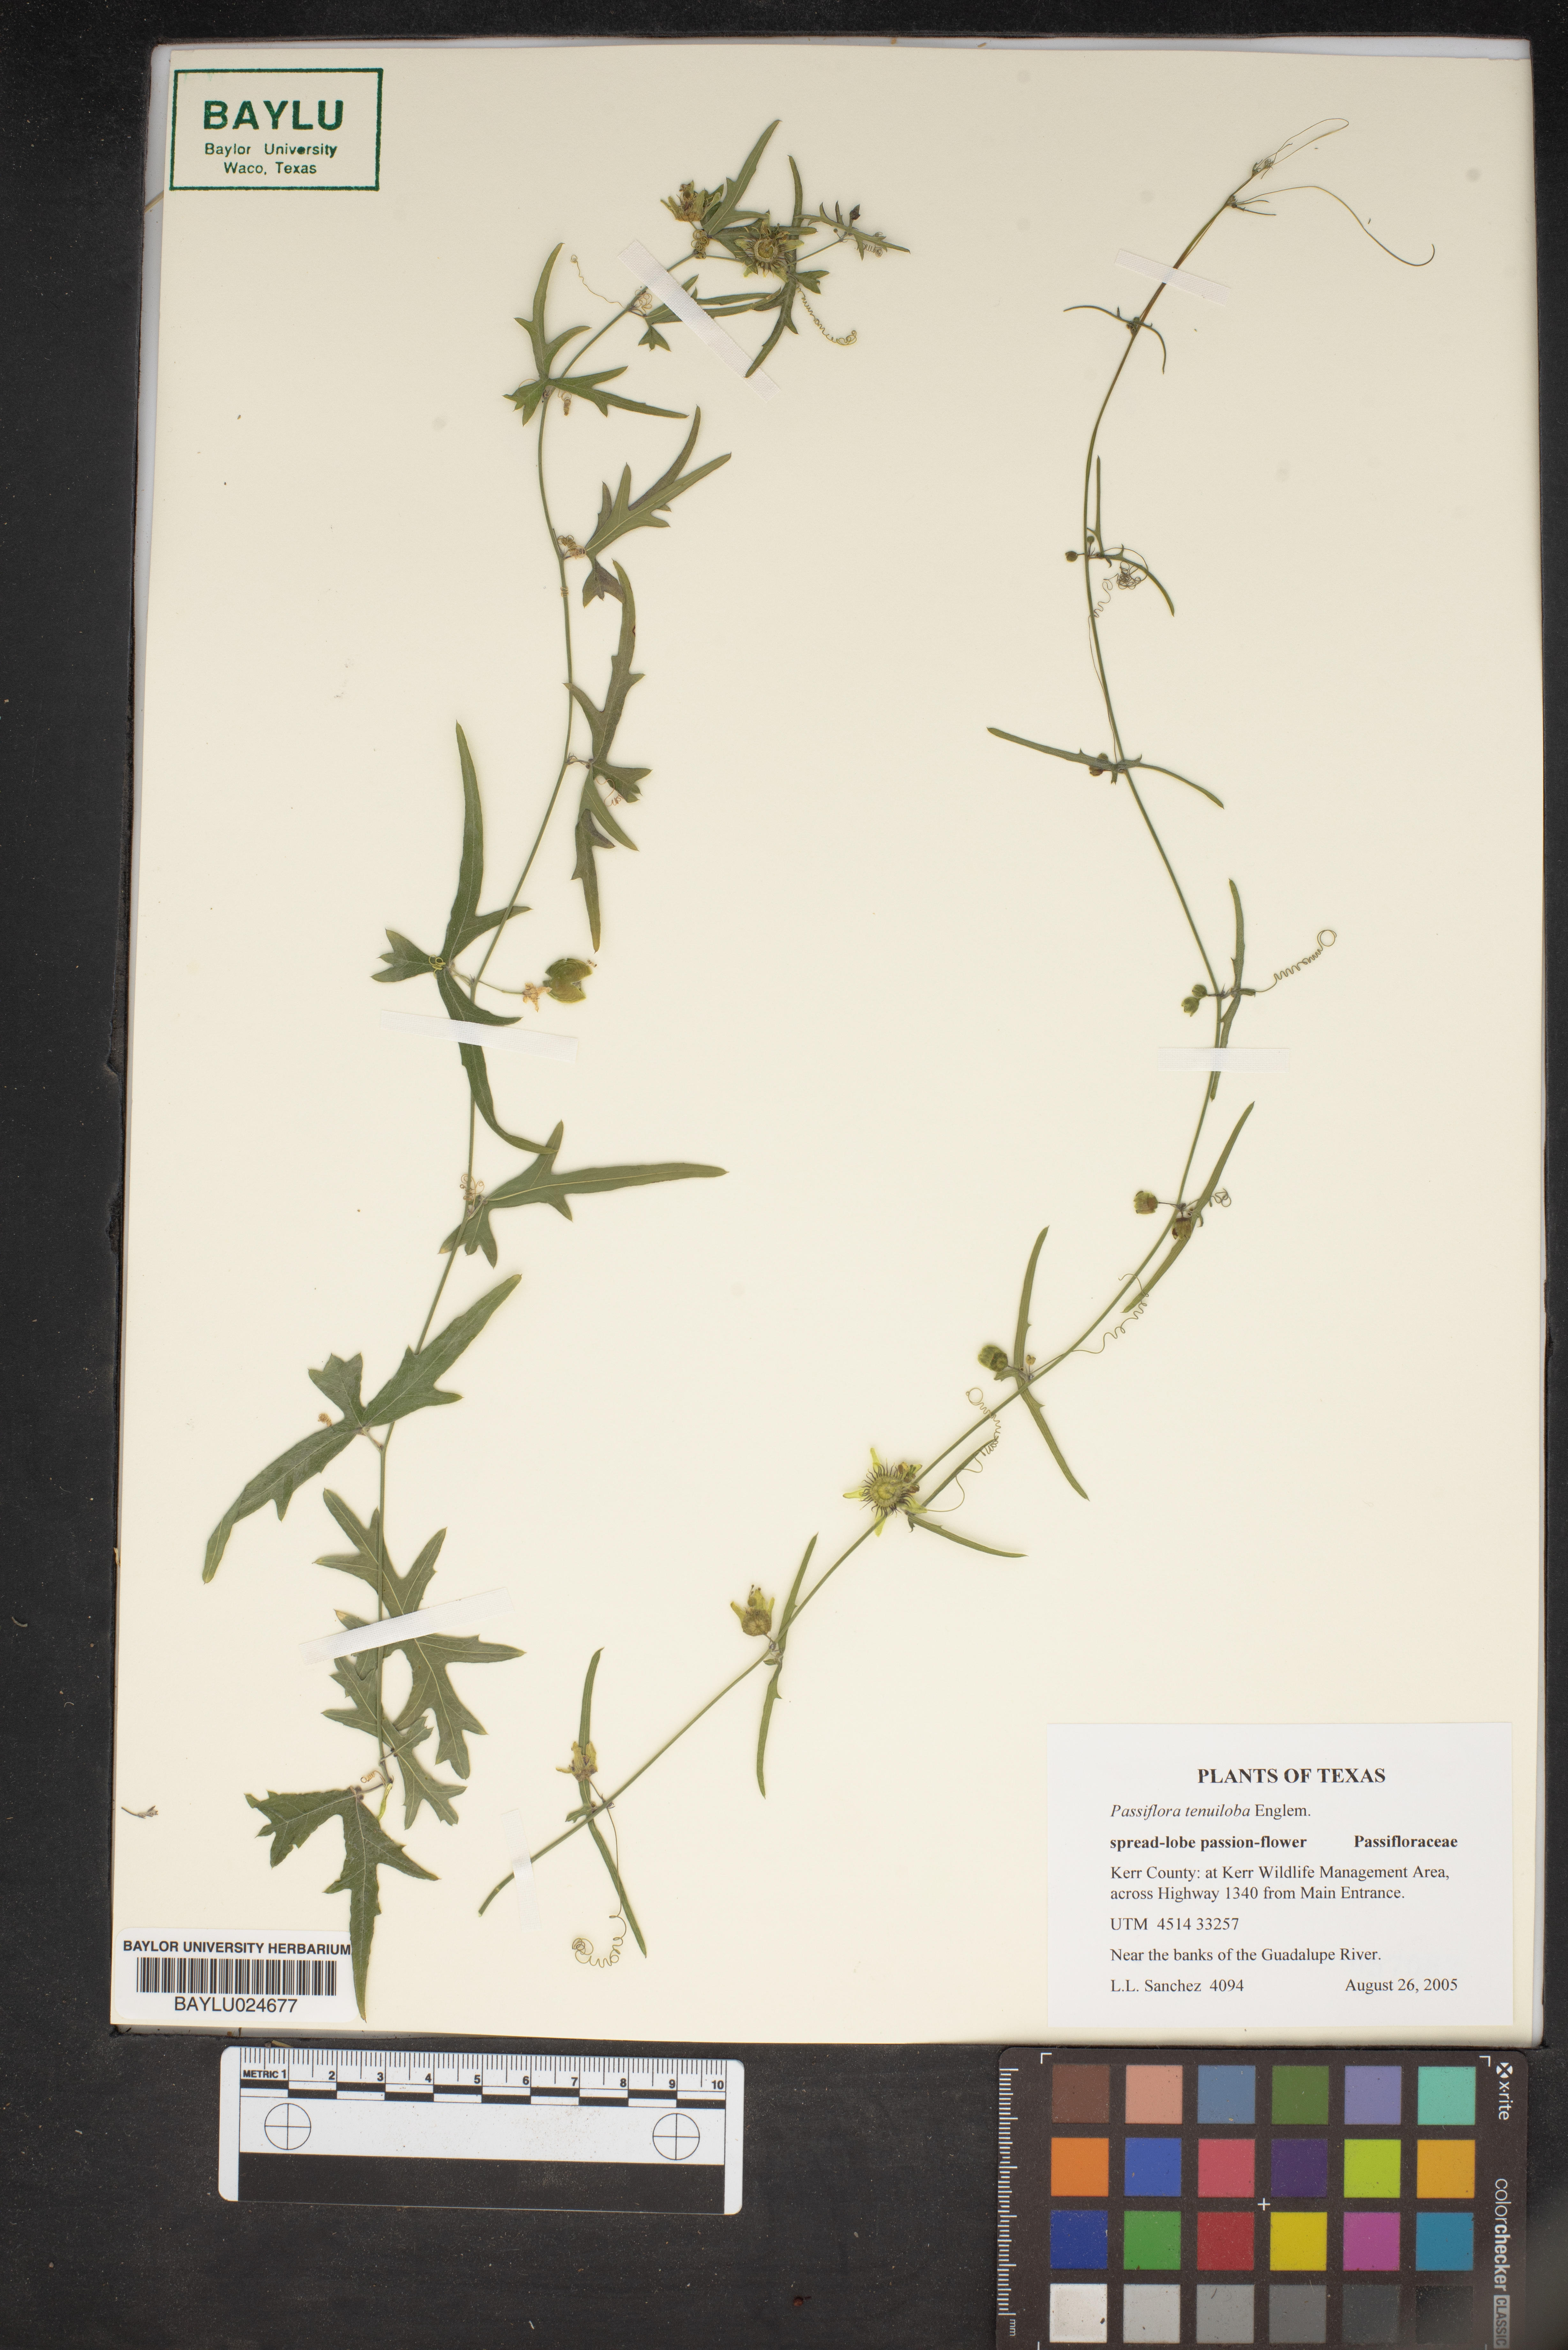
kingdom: Plantae
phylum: Tracheophyta
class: Magnoliopsida
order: Malpighiales
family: Passifloraceae
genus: Passiflora
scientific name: Passiflora tenuiloba
